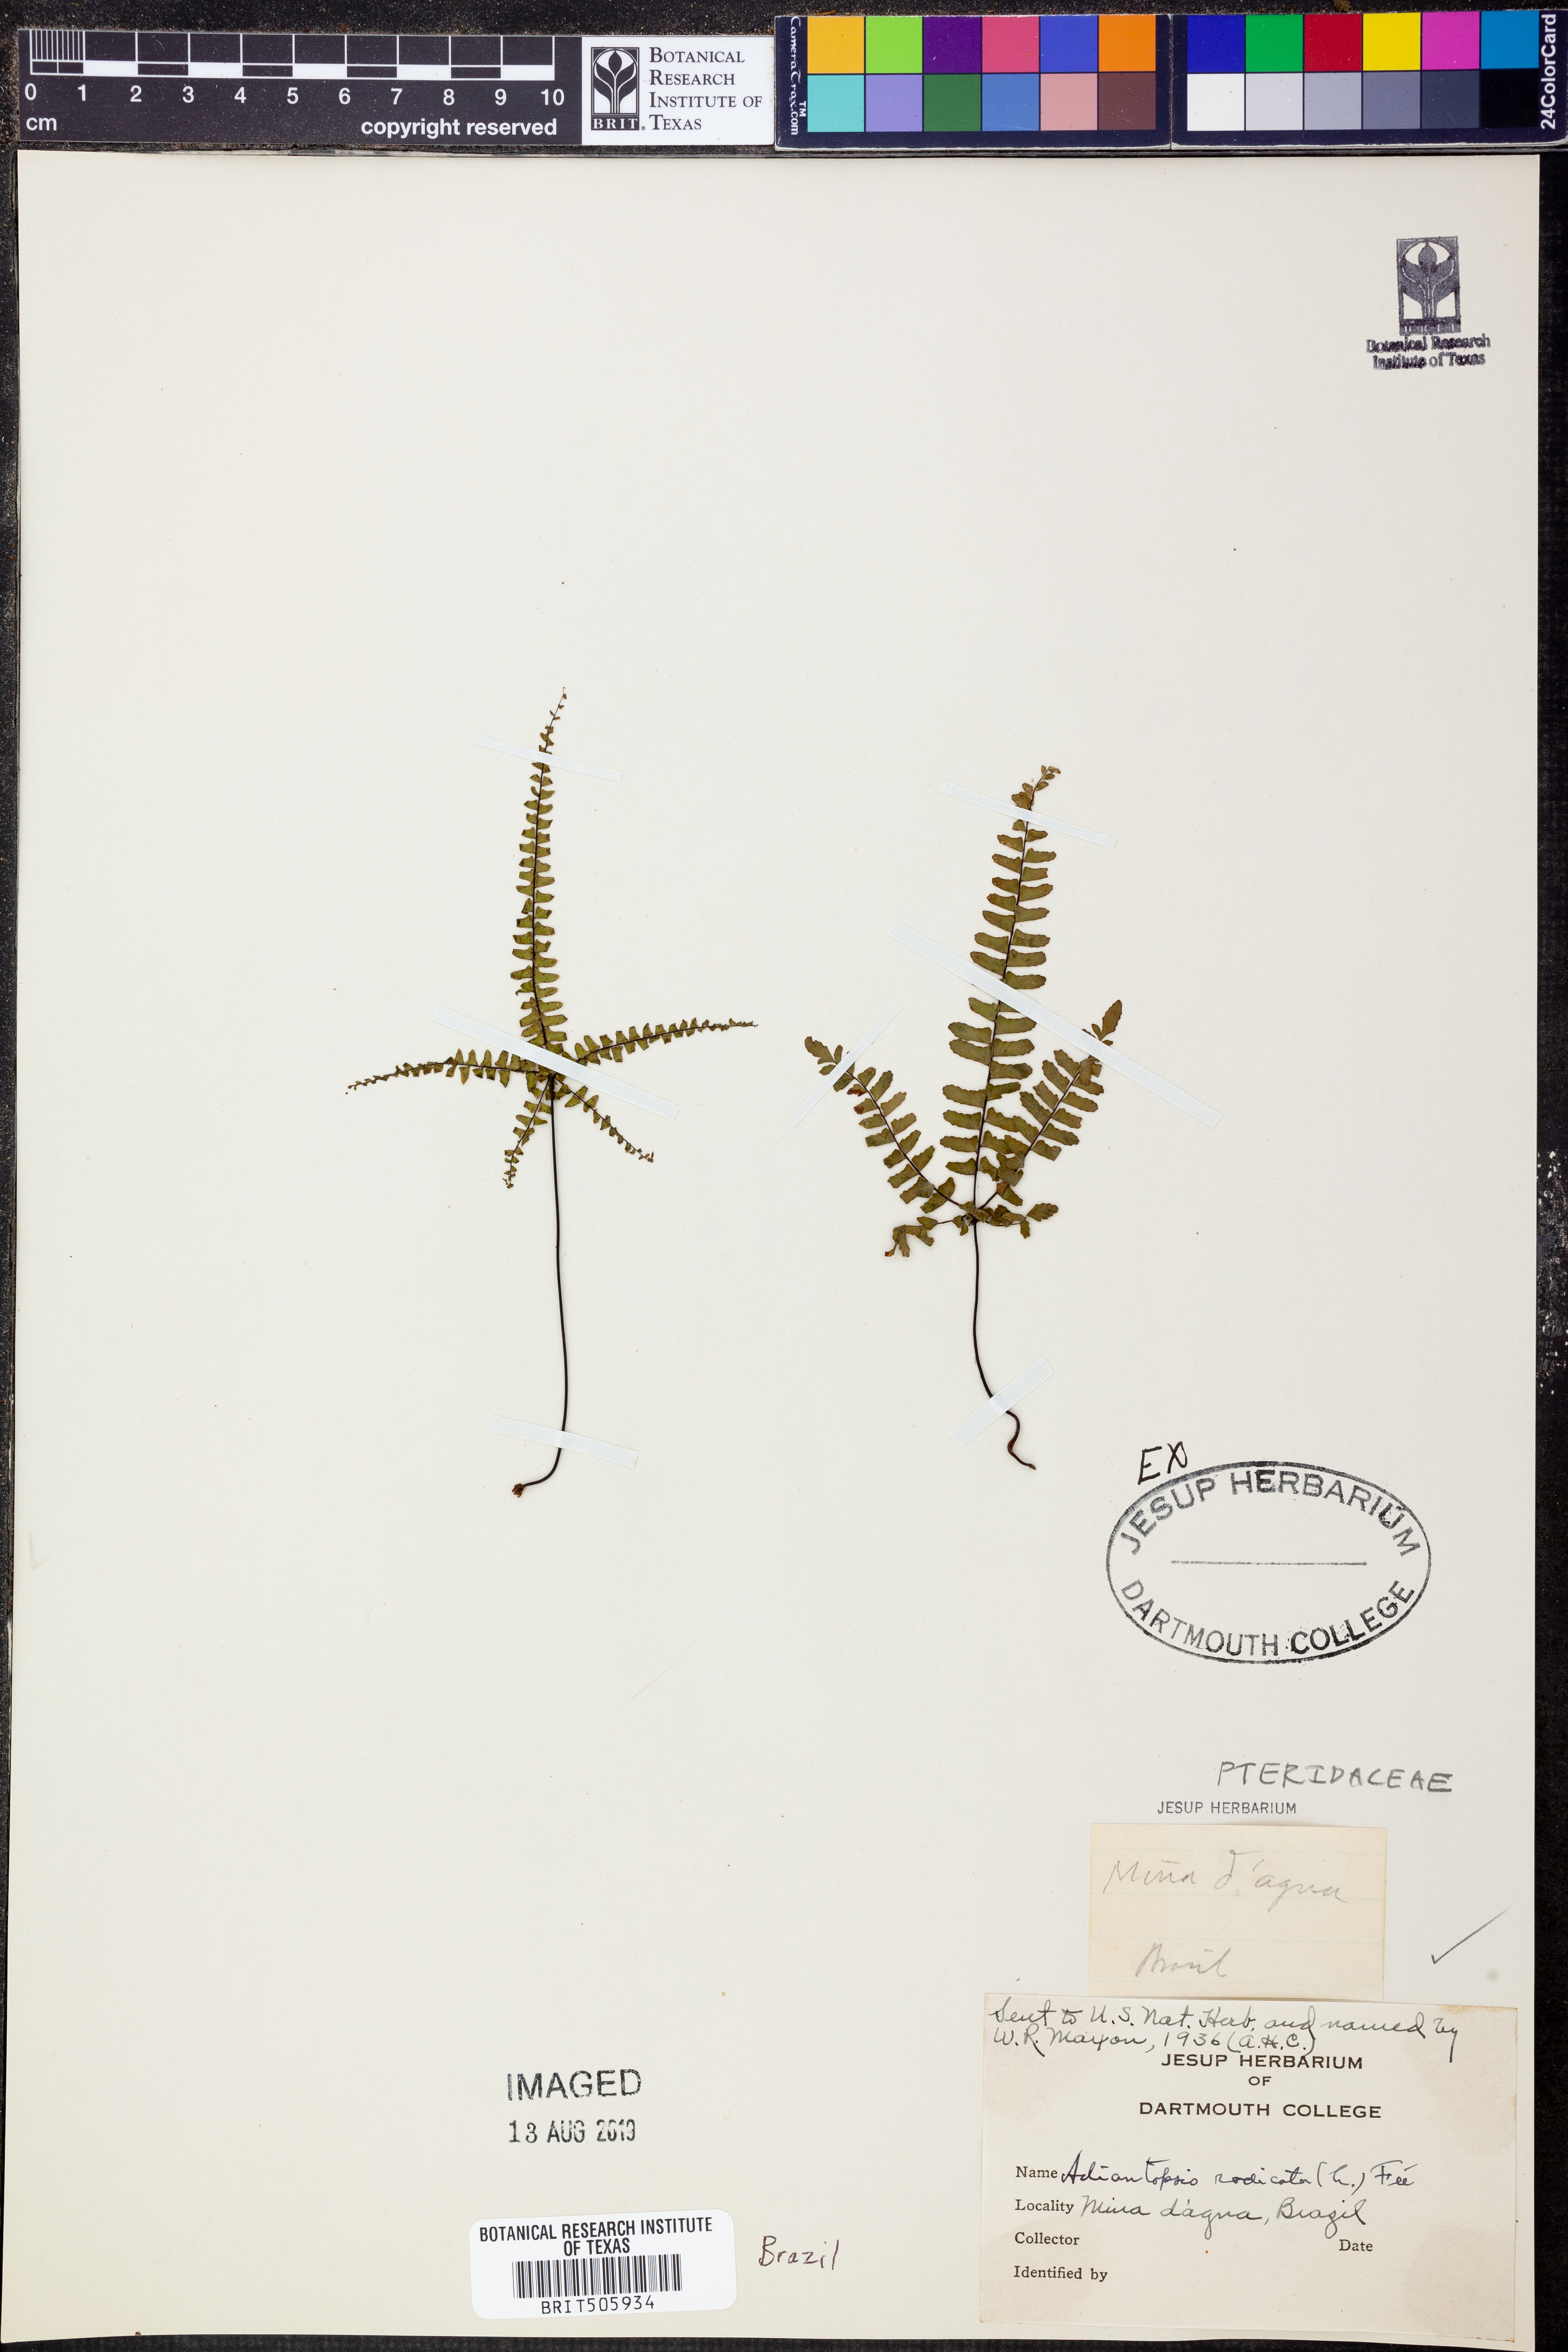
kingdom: Plantae
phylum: Tracheophyta
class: Polypodiopsida
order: Polypodiales
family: Pteridaceae
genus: Adiantopsis
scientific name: Adiantopsis radiata
